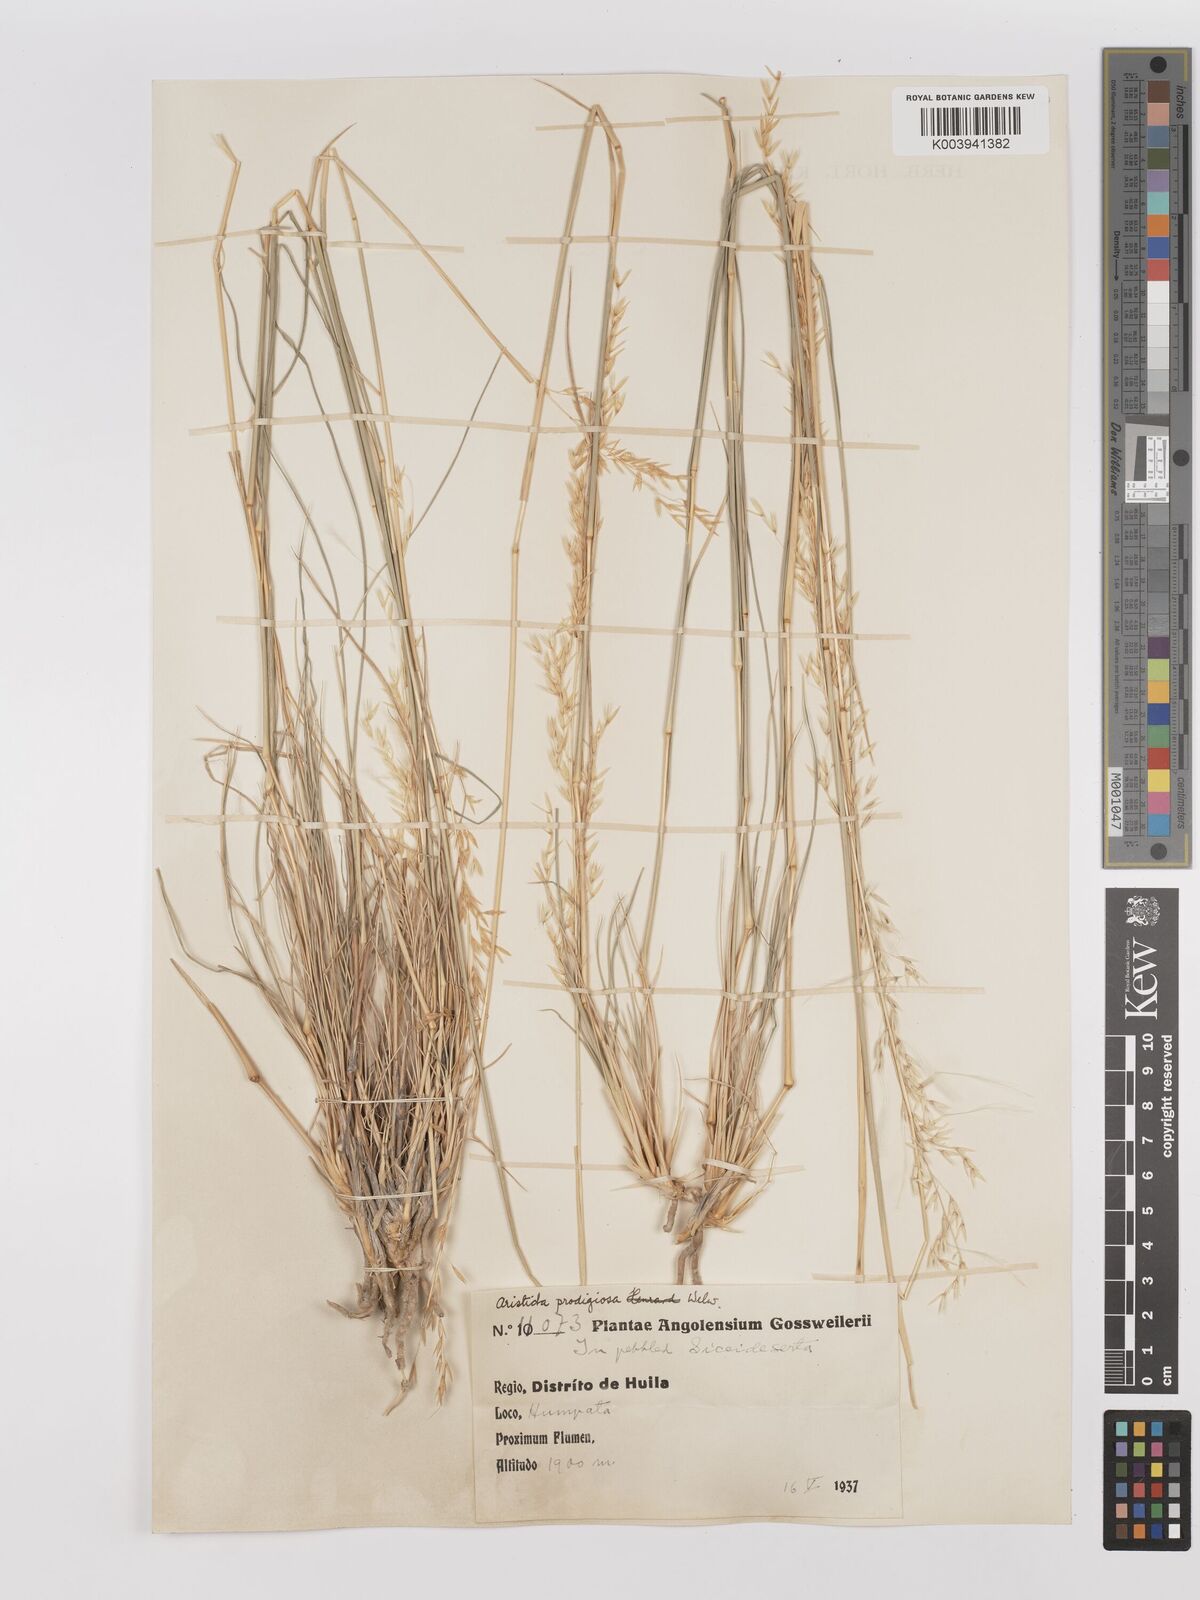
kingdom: Plantae
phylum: Tracheophyta
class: Liliopsida
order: Poales
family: Poaceae
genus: Stipagrostis
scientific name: Stipagrostis prodigiosa
